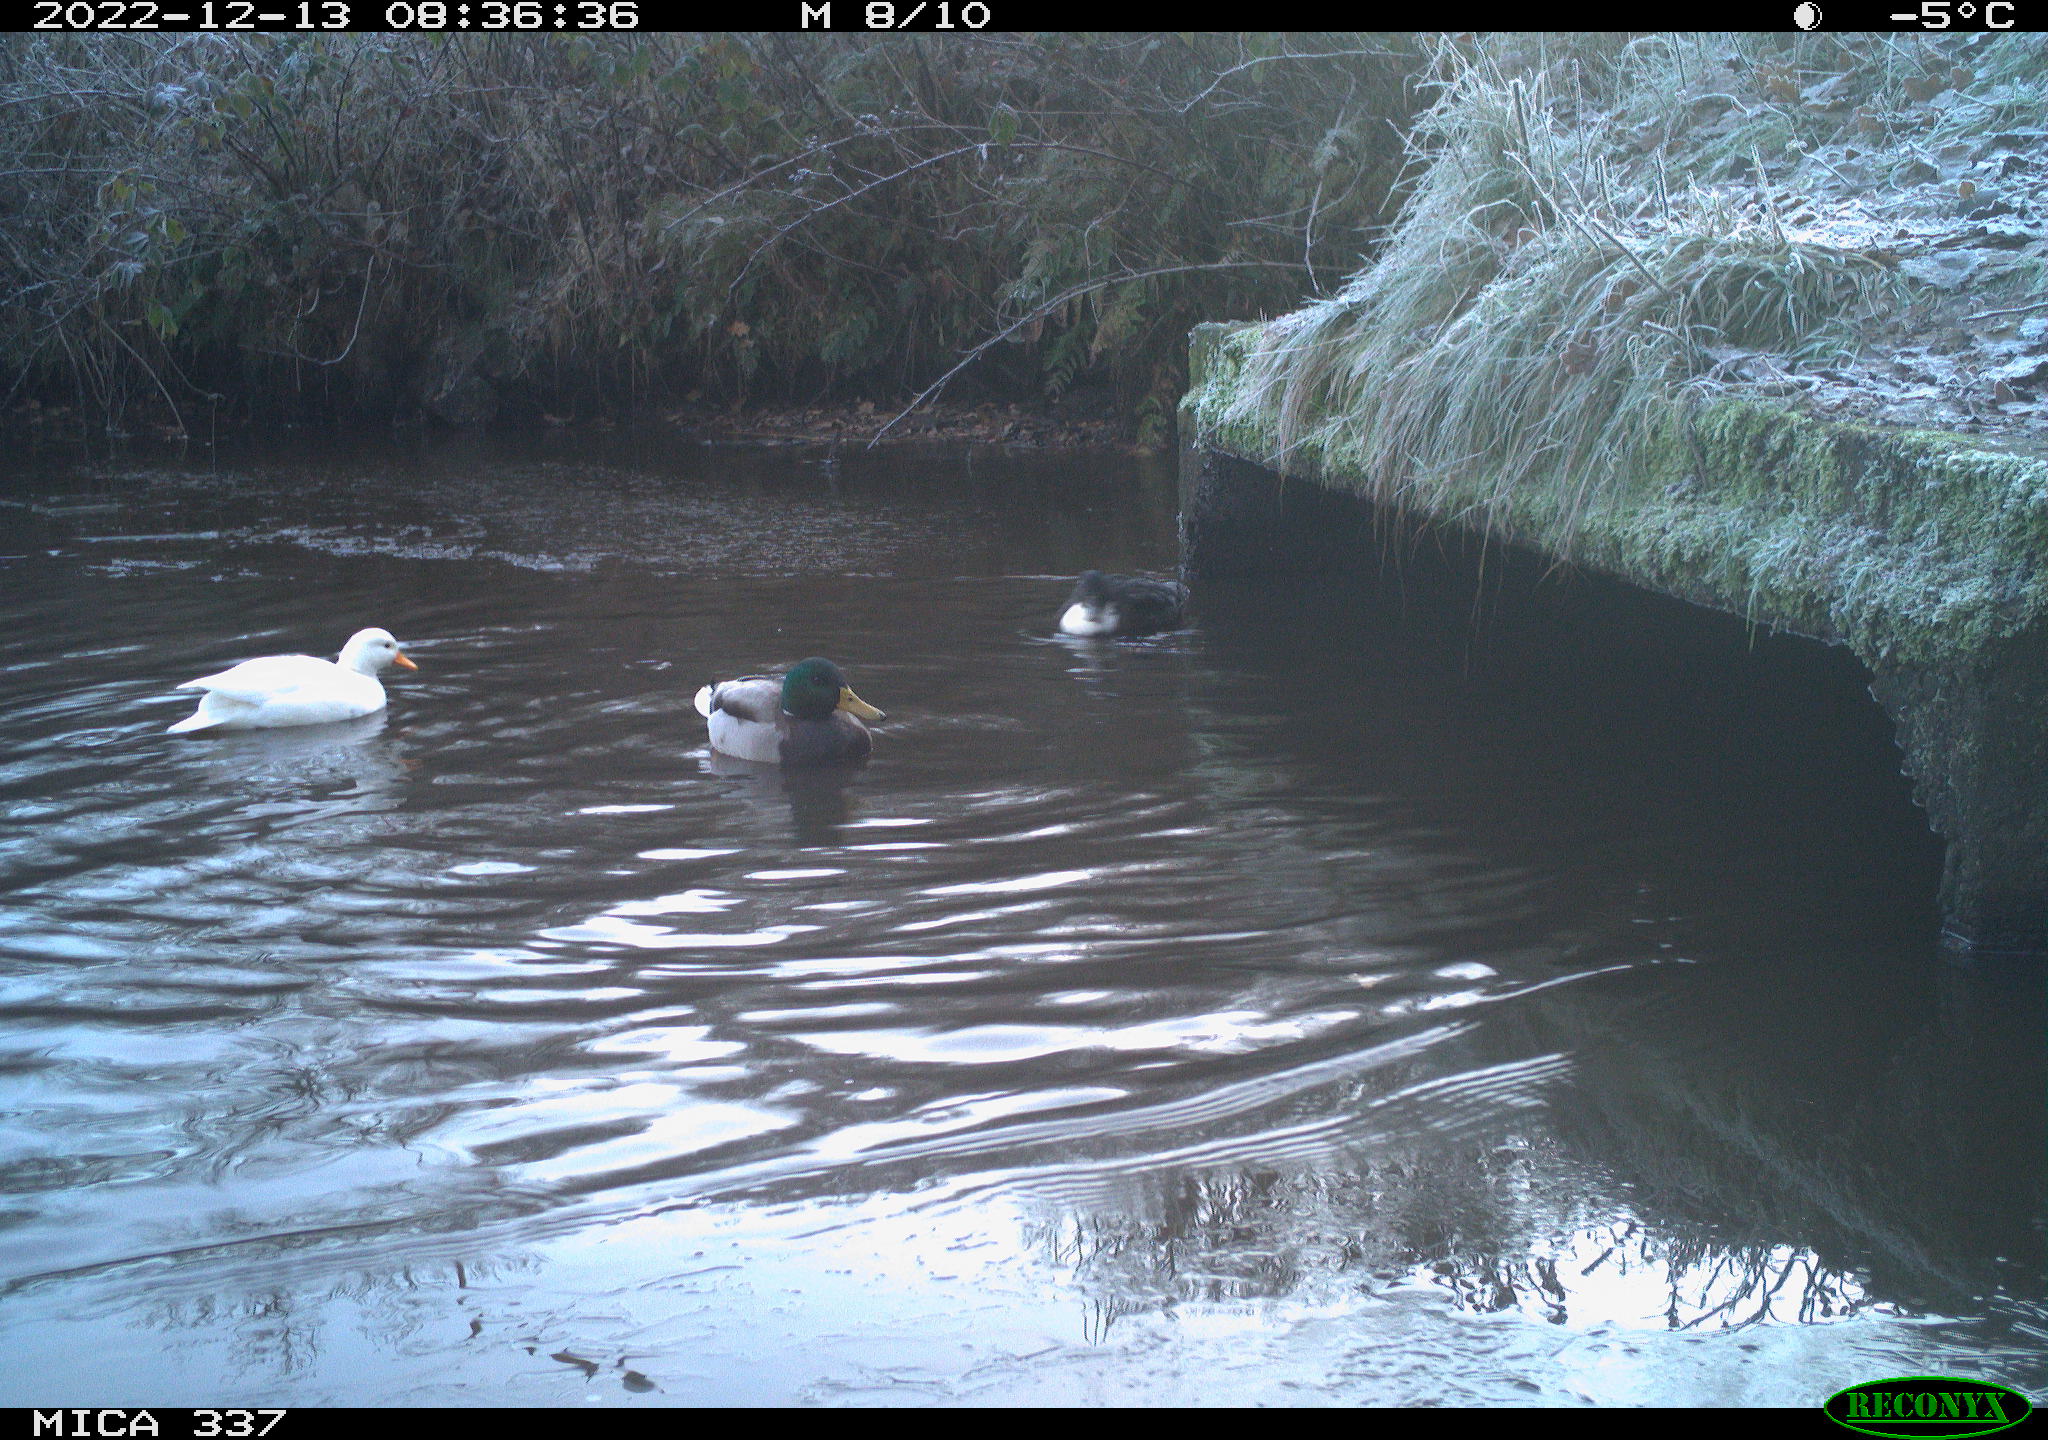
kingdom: Animalia
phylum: Chordata
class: Aves
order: Anseriformes
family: Anatidae
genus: Anas
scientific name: Anas
